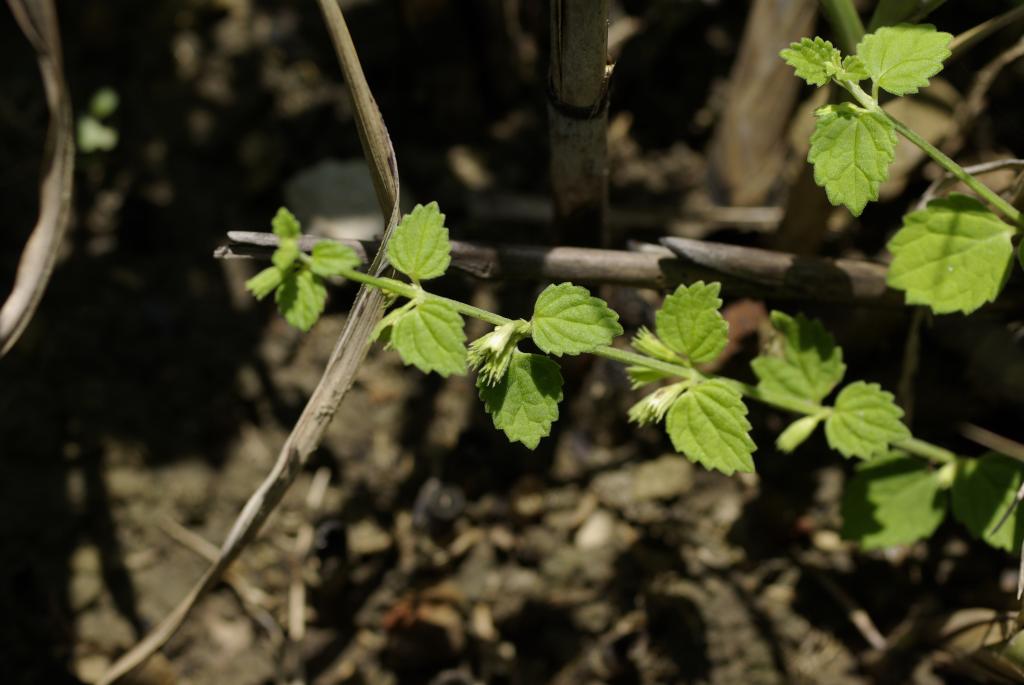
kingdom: Plantae
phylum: Tracheophyta
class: Magnoliopsida
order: Lamiales
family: Lamiaceae
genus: Leucas
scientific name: Leucas chinensis
